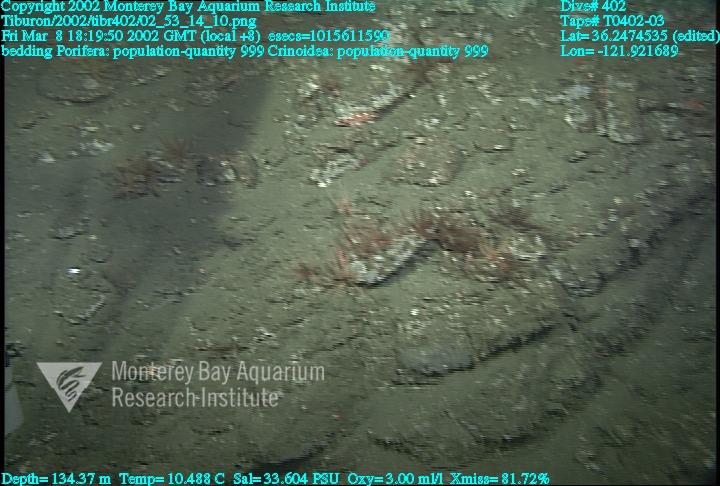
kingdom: Animalia
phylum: Porifera
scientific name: Porifera
